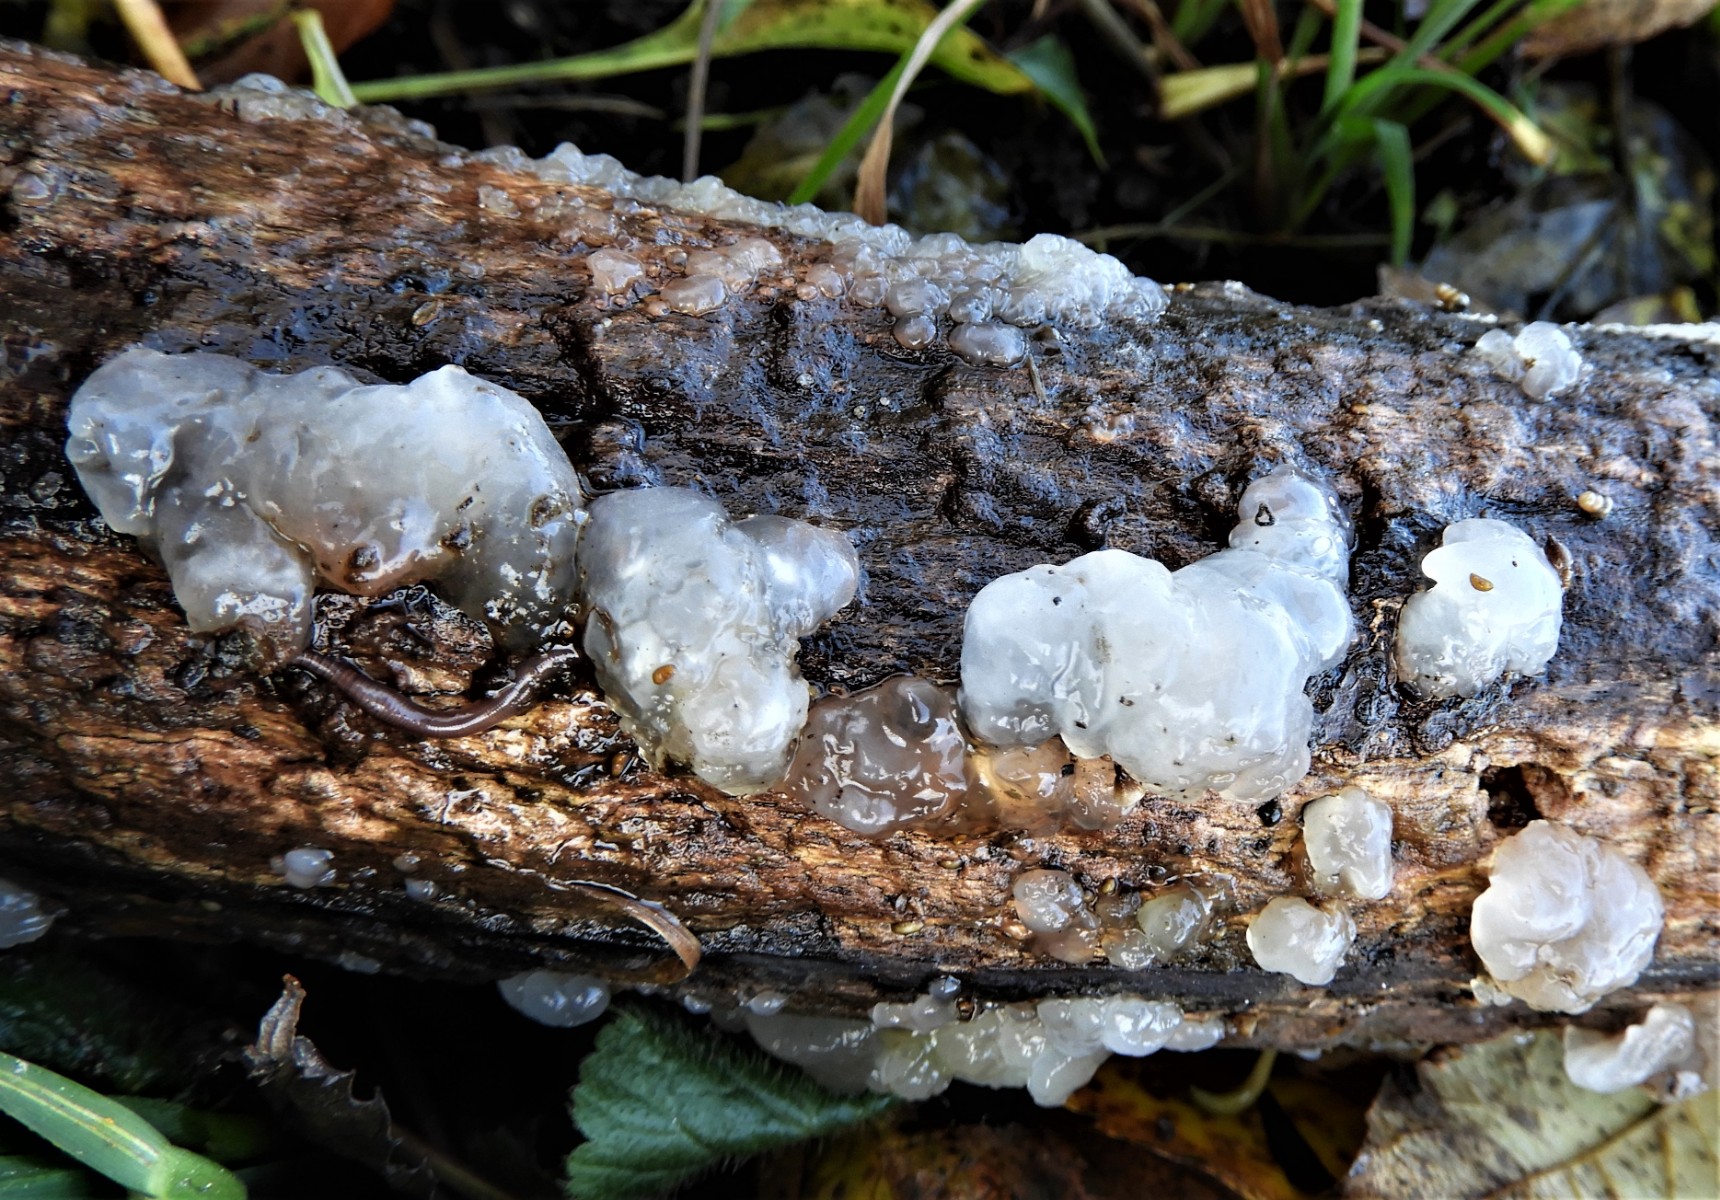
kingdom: Fungi
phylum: Basidiomycota
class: Agaricomycetes
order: Auriculariales
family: Hyaloriaceae
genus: Myxarium
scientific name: Myxarium nucleatum
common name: klar bævretop
